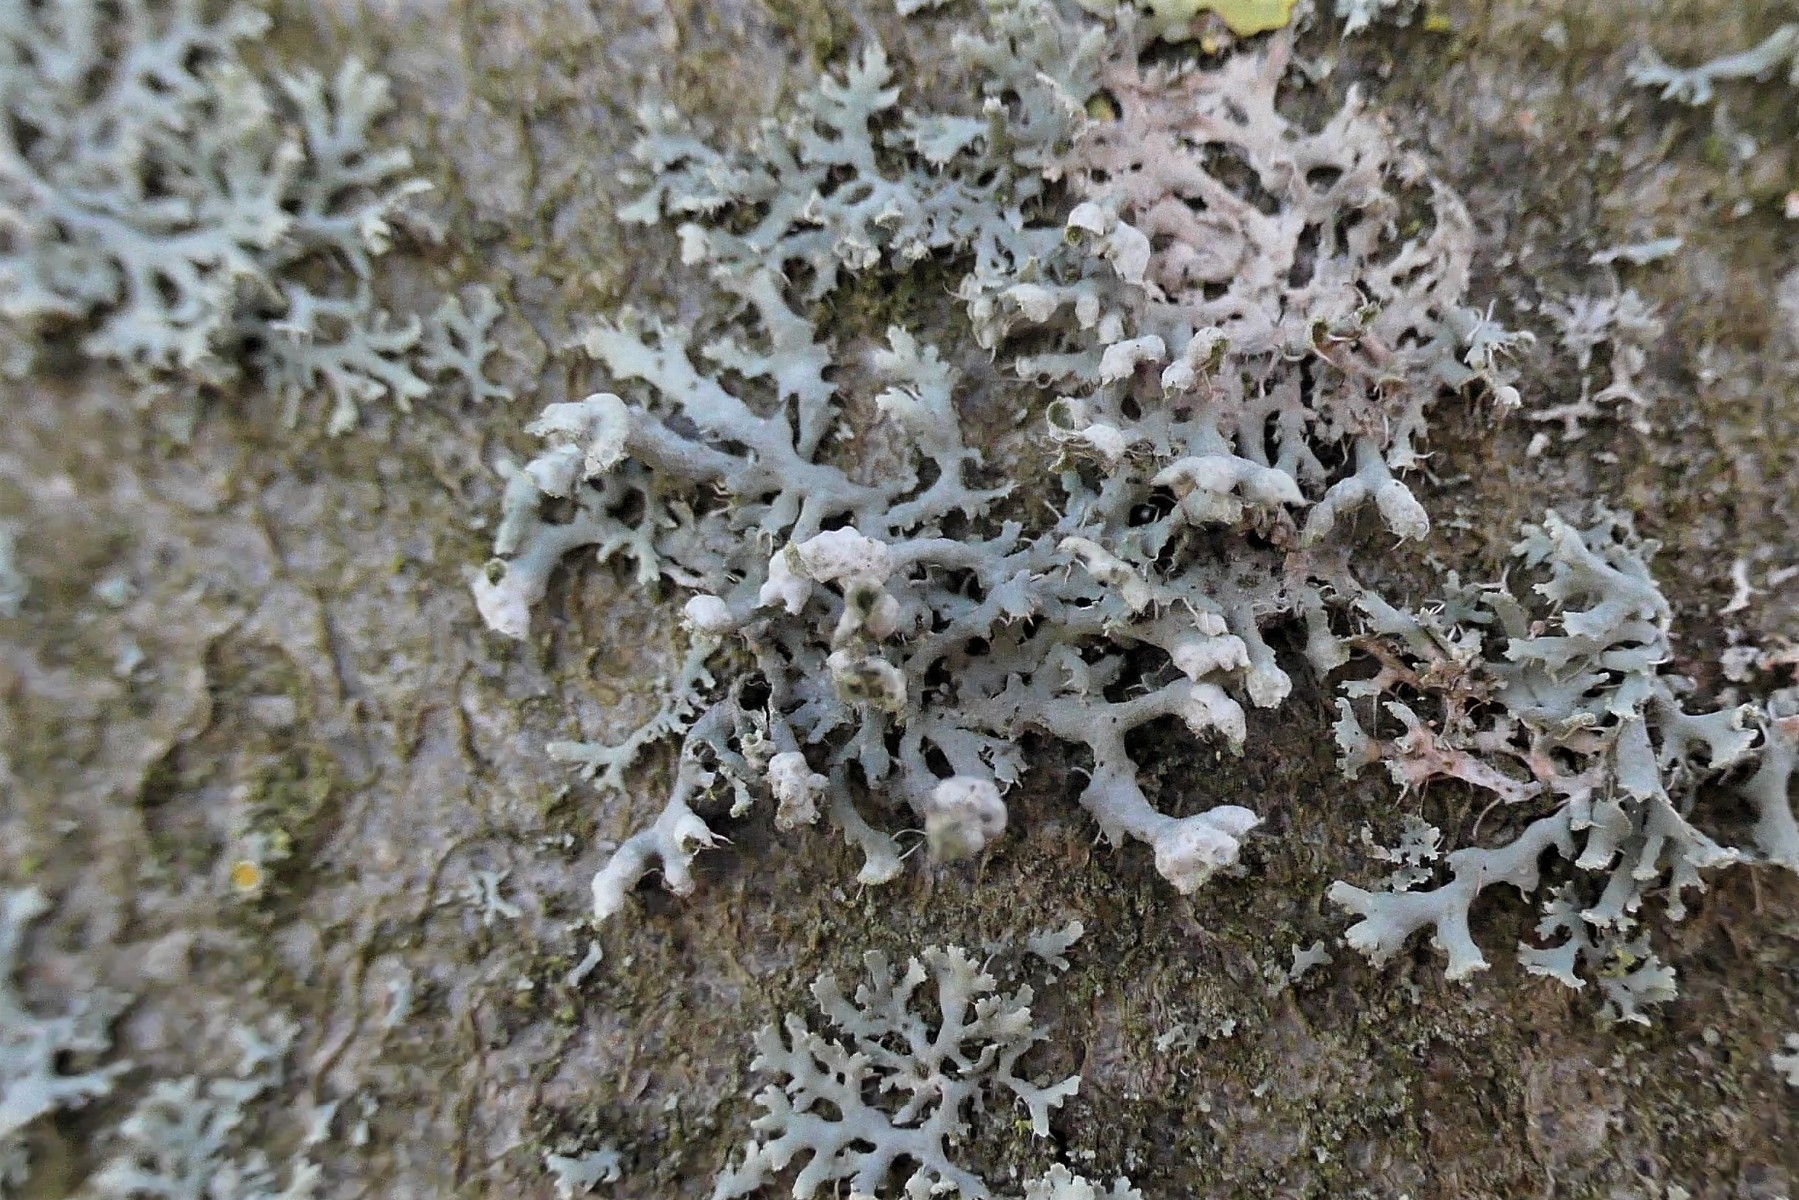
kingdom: Fungi
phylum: Ascomycota
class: Lecanoromycetes
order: Caliciales
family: Physciaceae
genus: Physcia
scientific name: Physcia adscendens
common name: hætte-rosetlav
